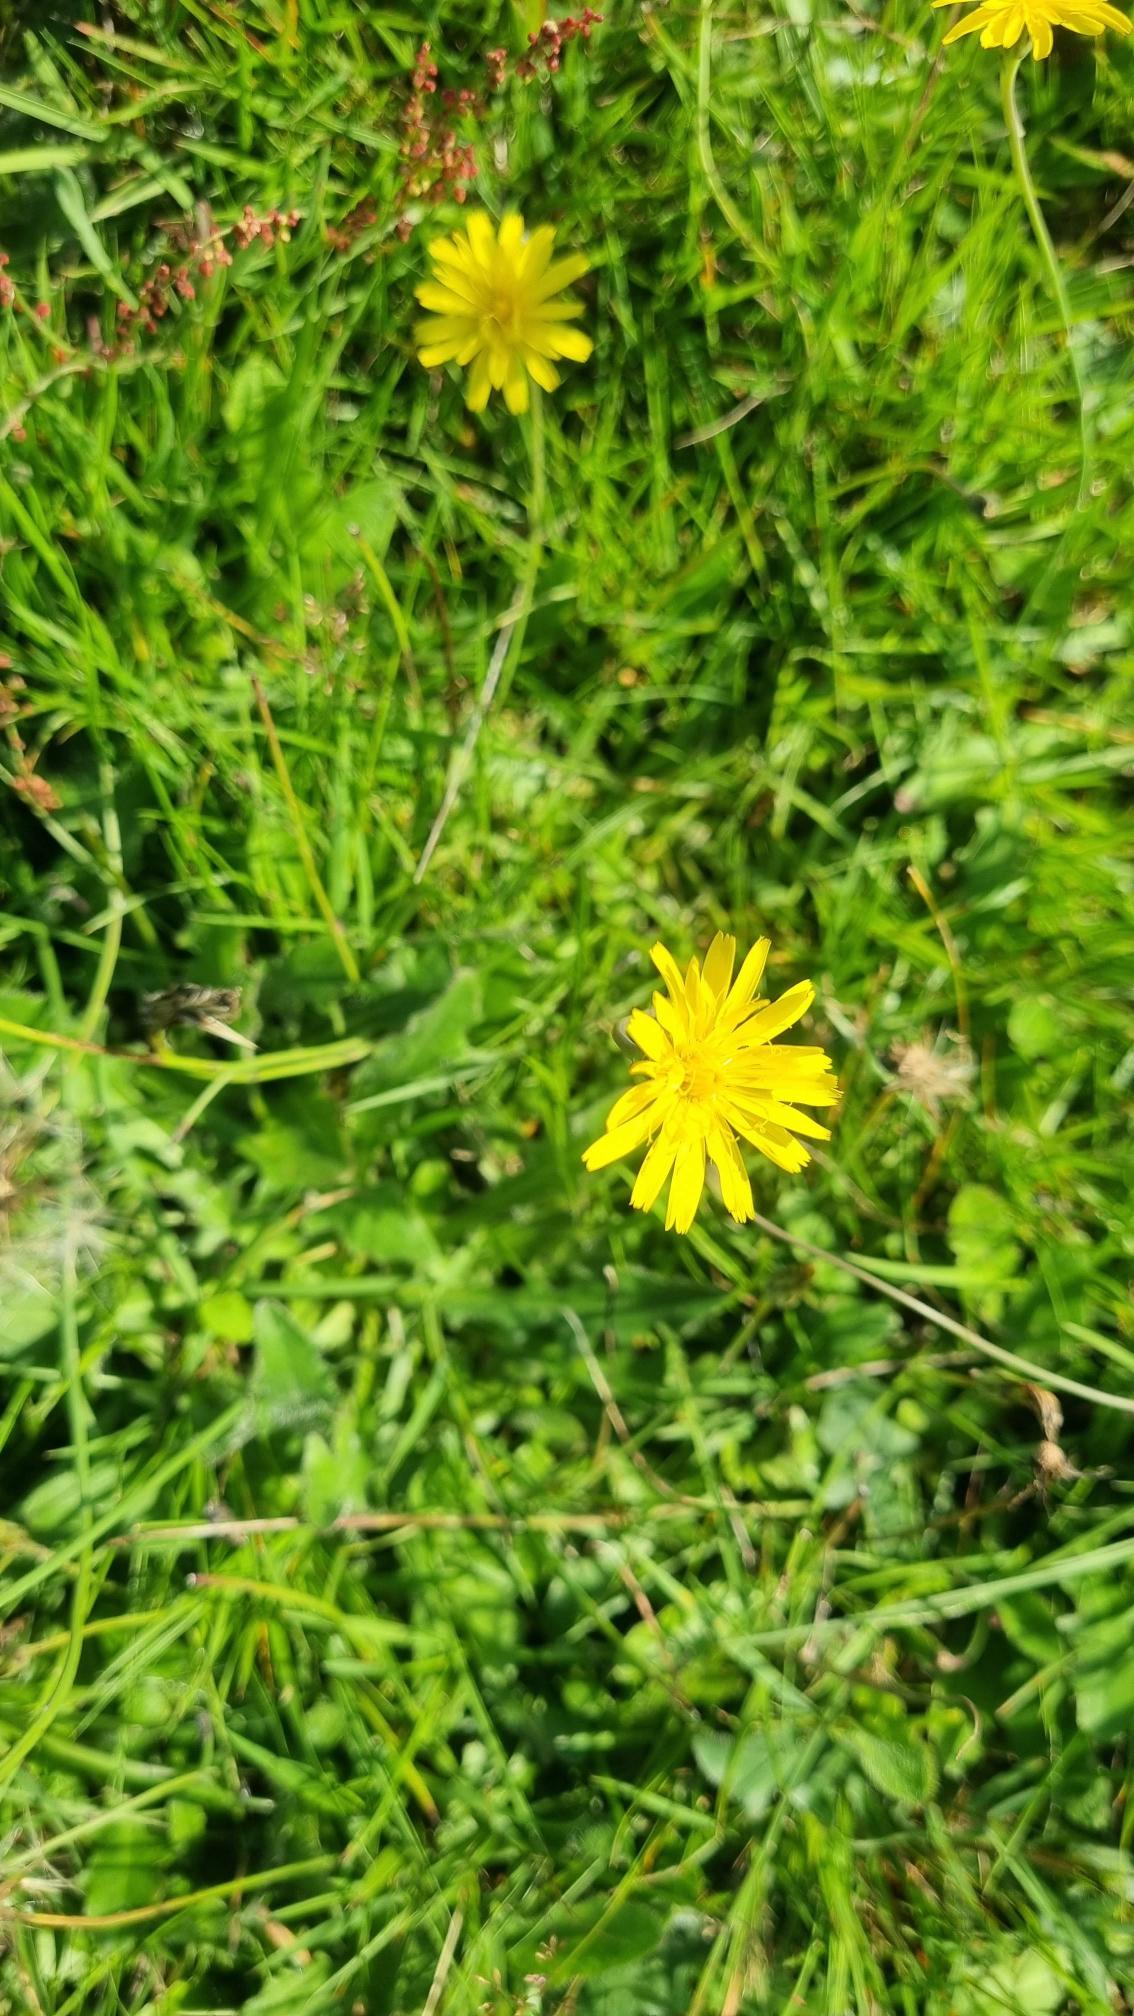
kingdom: Plantae
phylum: Tracheophyta
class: Magnoliopsida
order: Asterales
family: Asteraceae
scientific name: Asteraceae
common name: Kurvblomstfamilien
